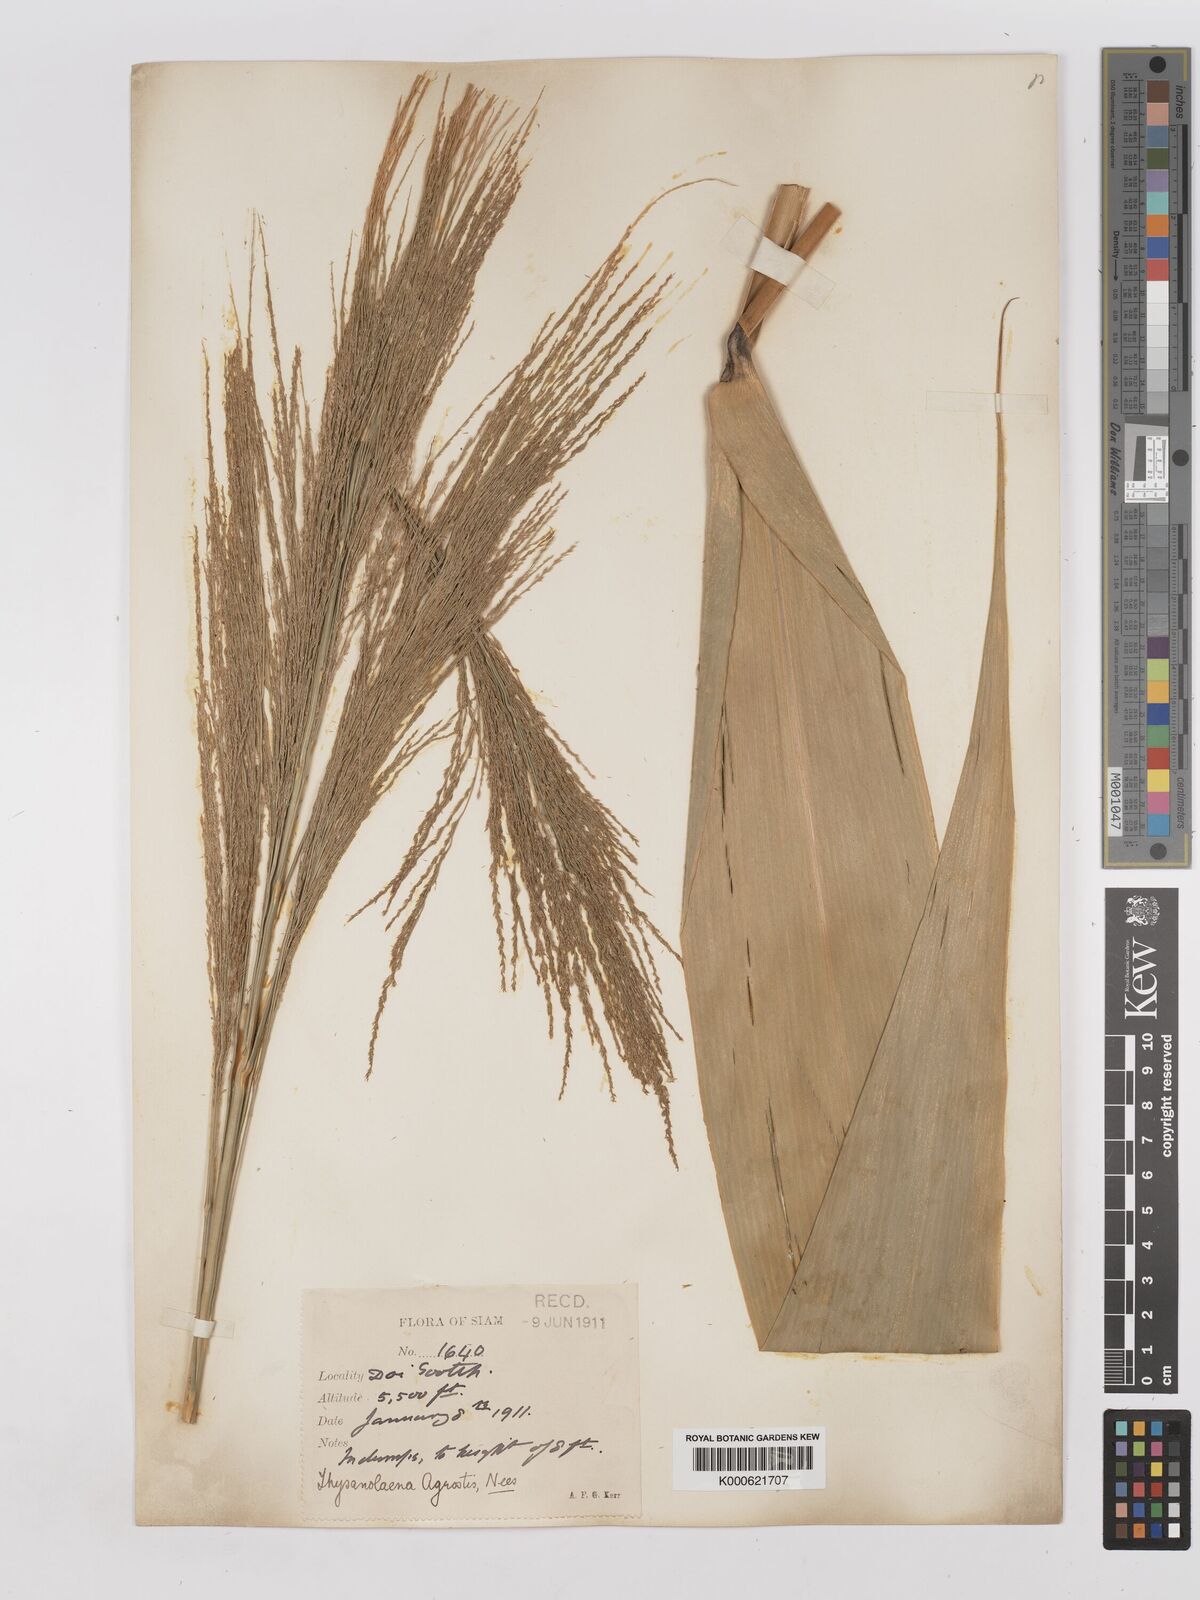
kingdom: Plantae
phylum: Tracheophyta
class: Liliopsida
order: Poales
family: Poaceae
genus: Thysanolaena
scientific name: Thysanolaena latifolia
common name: Tiger grass
